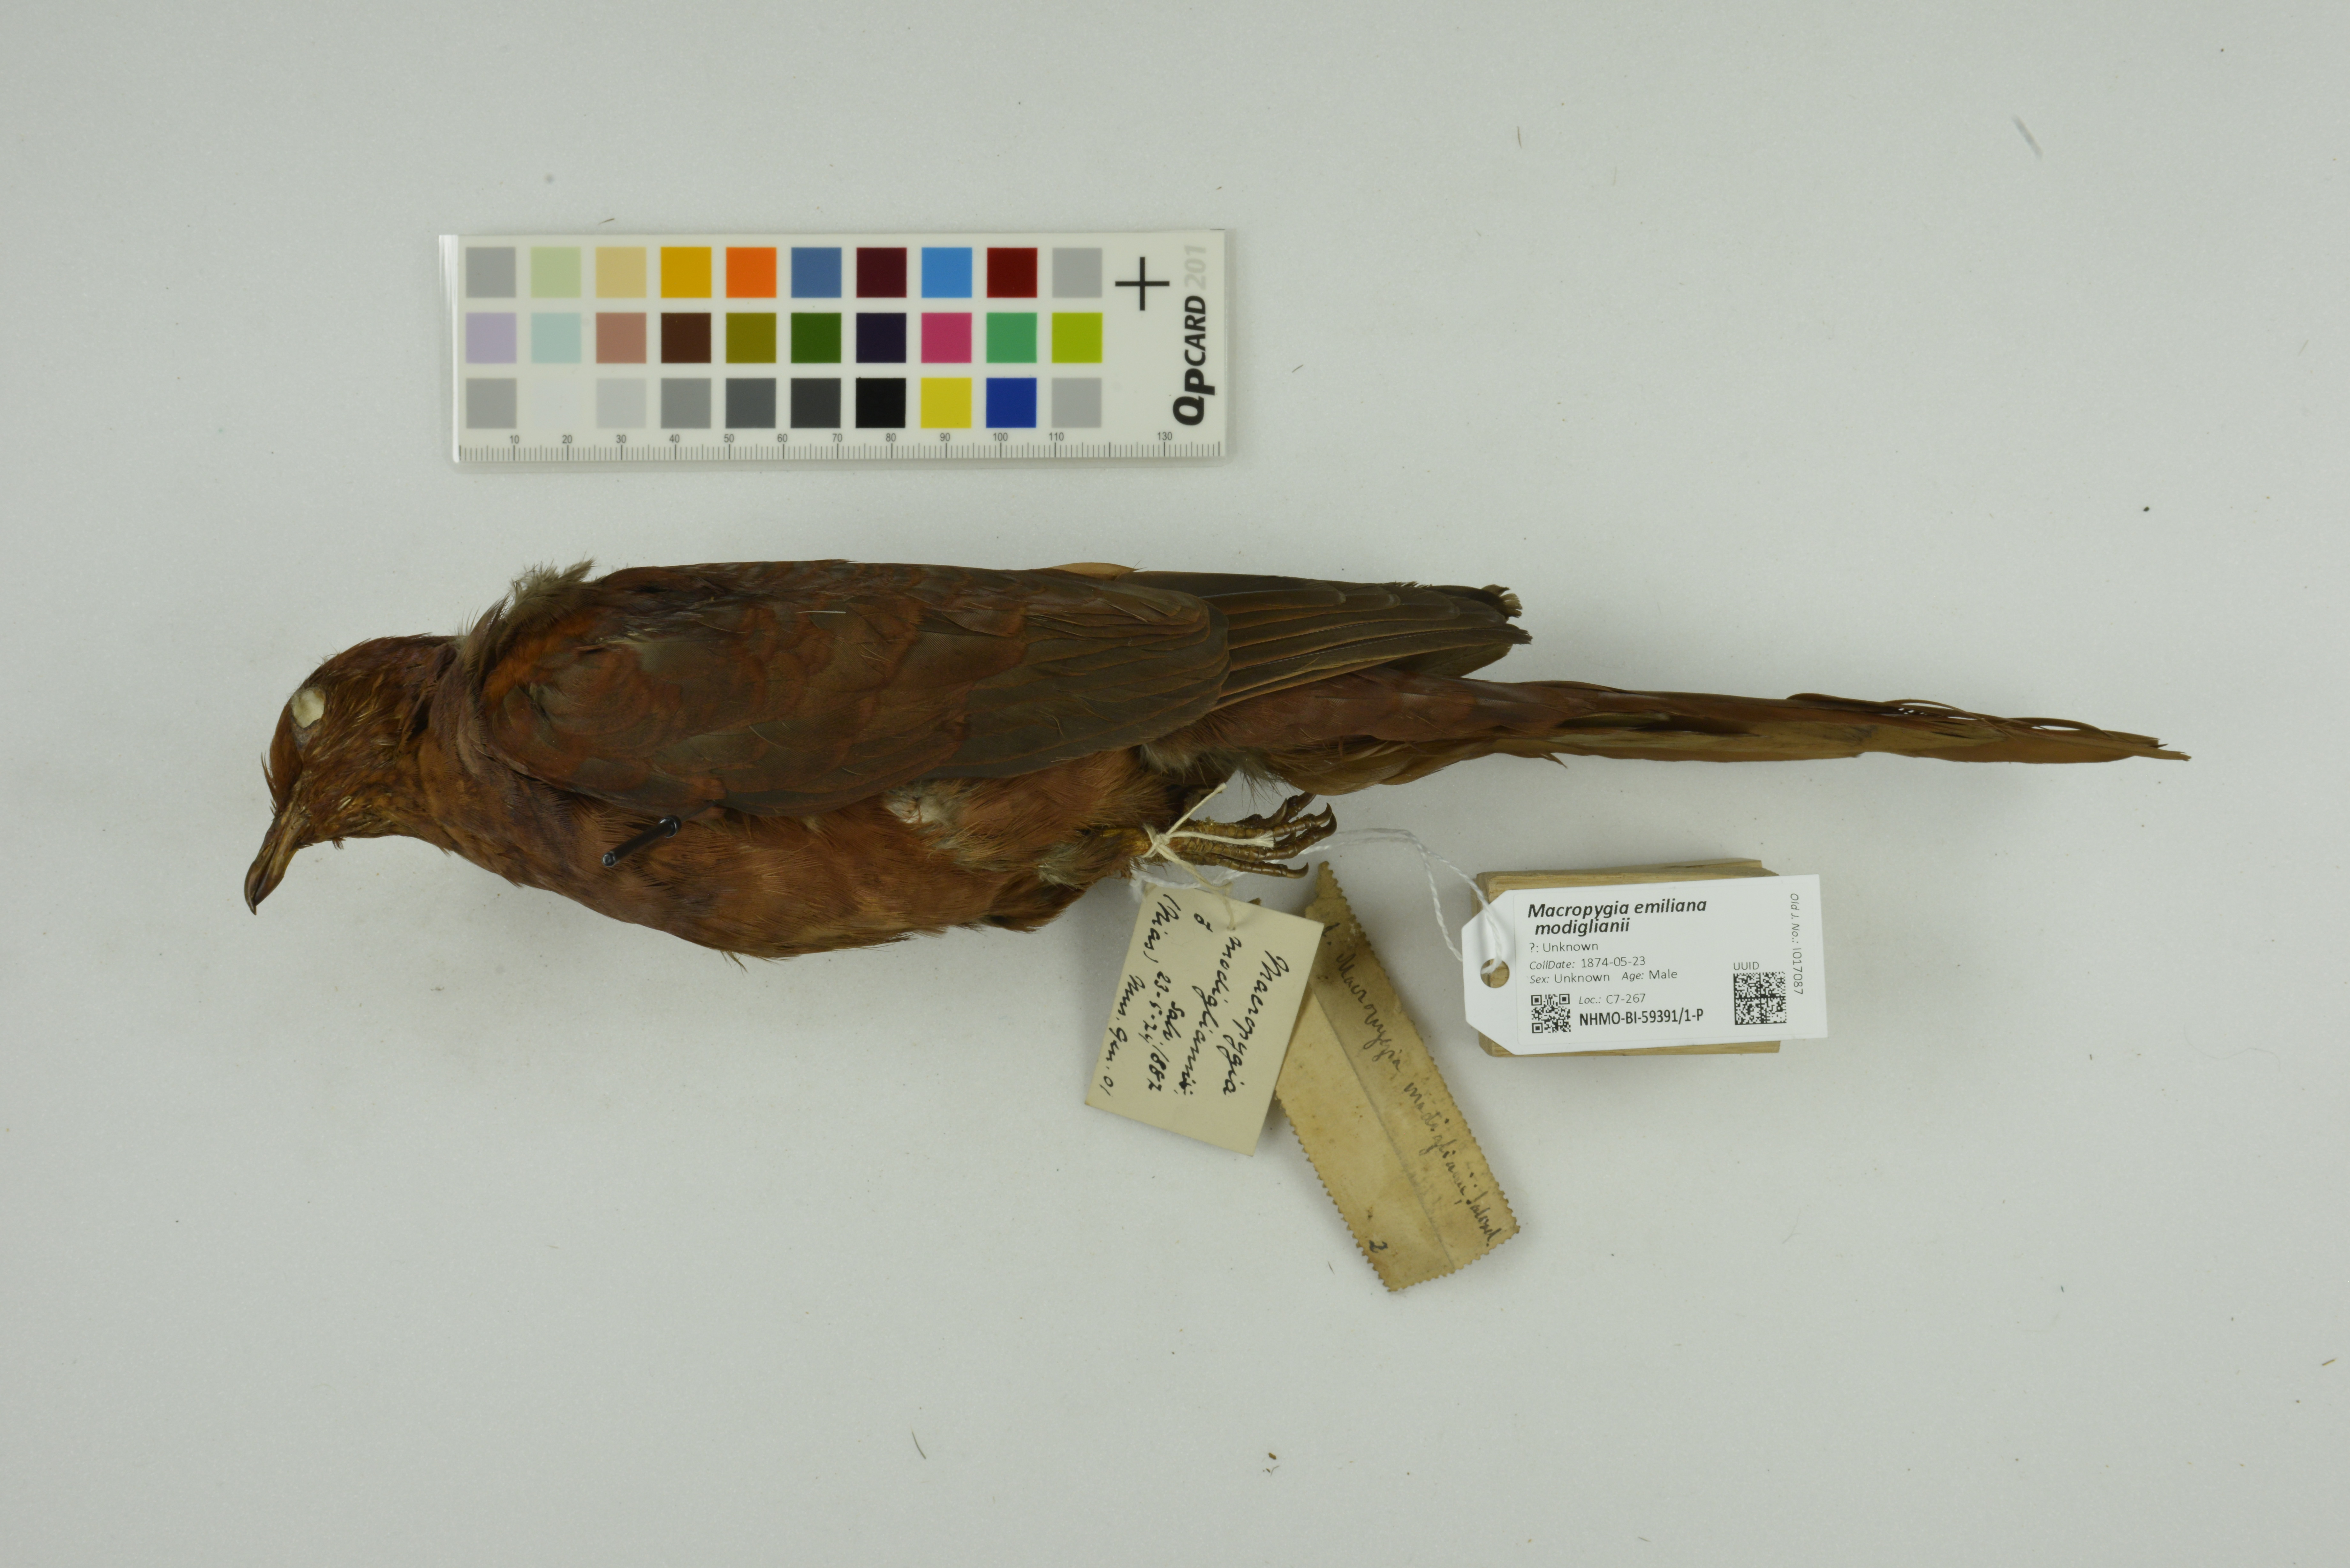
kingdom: Animalia
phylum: Chordata
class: Aves
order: Columbiformes
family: Columbidae
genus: Macropygia
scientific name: Macropygia modiglianii
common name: Barusan cuckoo-dove
